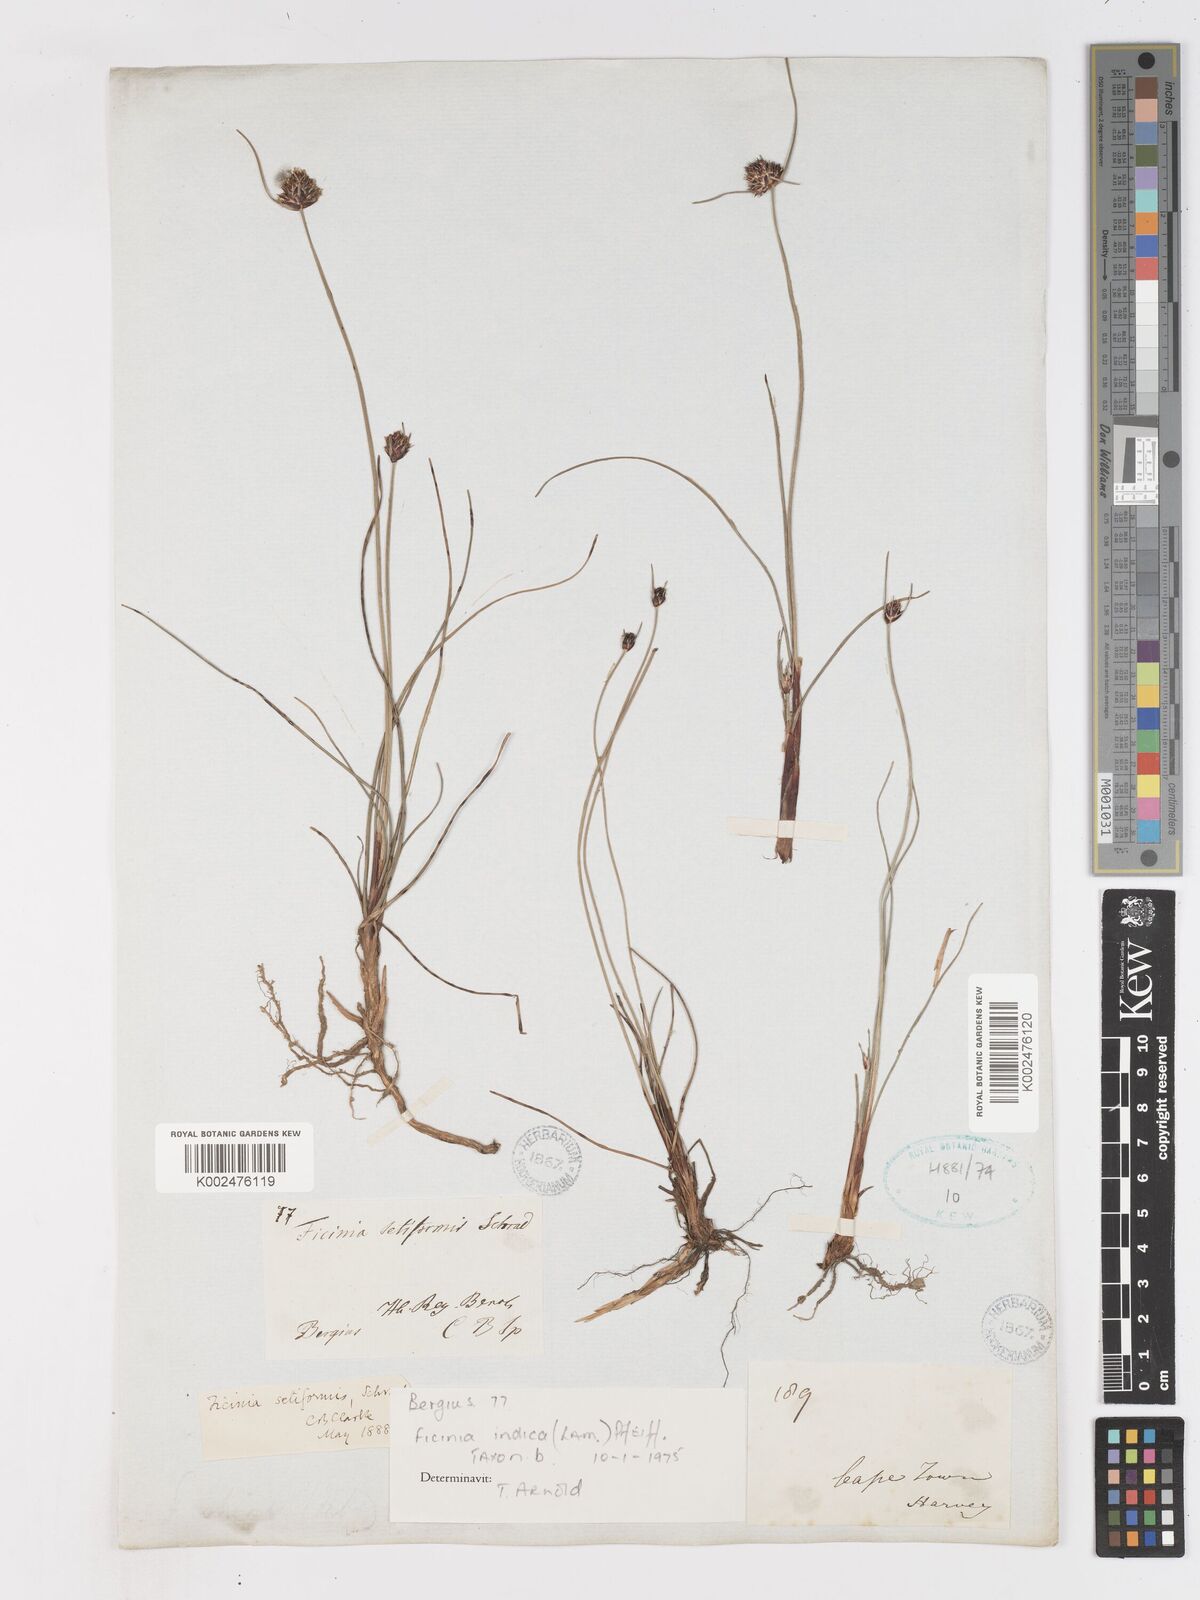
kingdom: Plantae
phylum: Tracheophyta
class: Liliopsida
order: Poales
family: Cyperaceae
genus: Ficinia
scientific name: Ficinia indica
